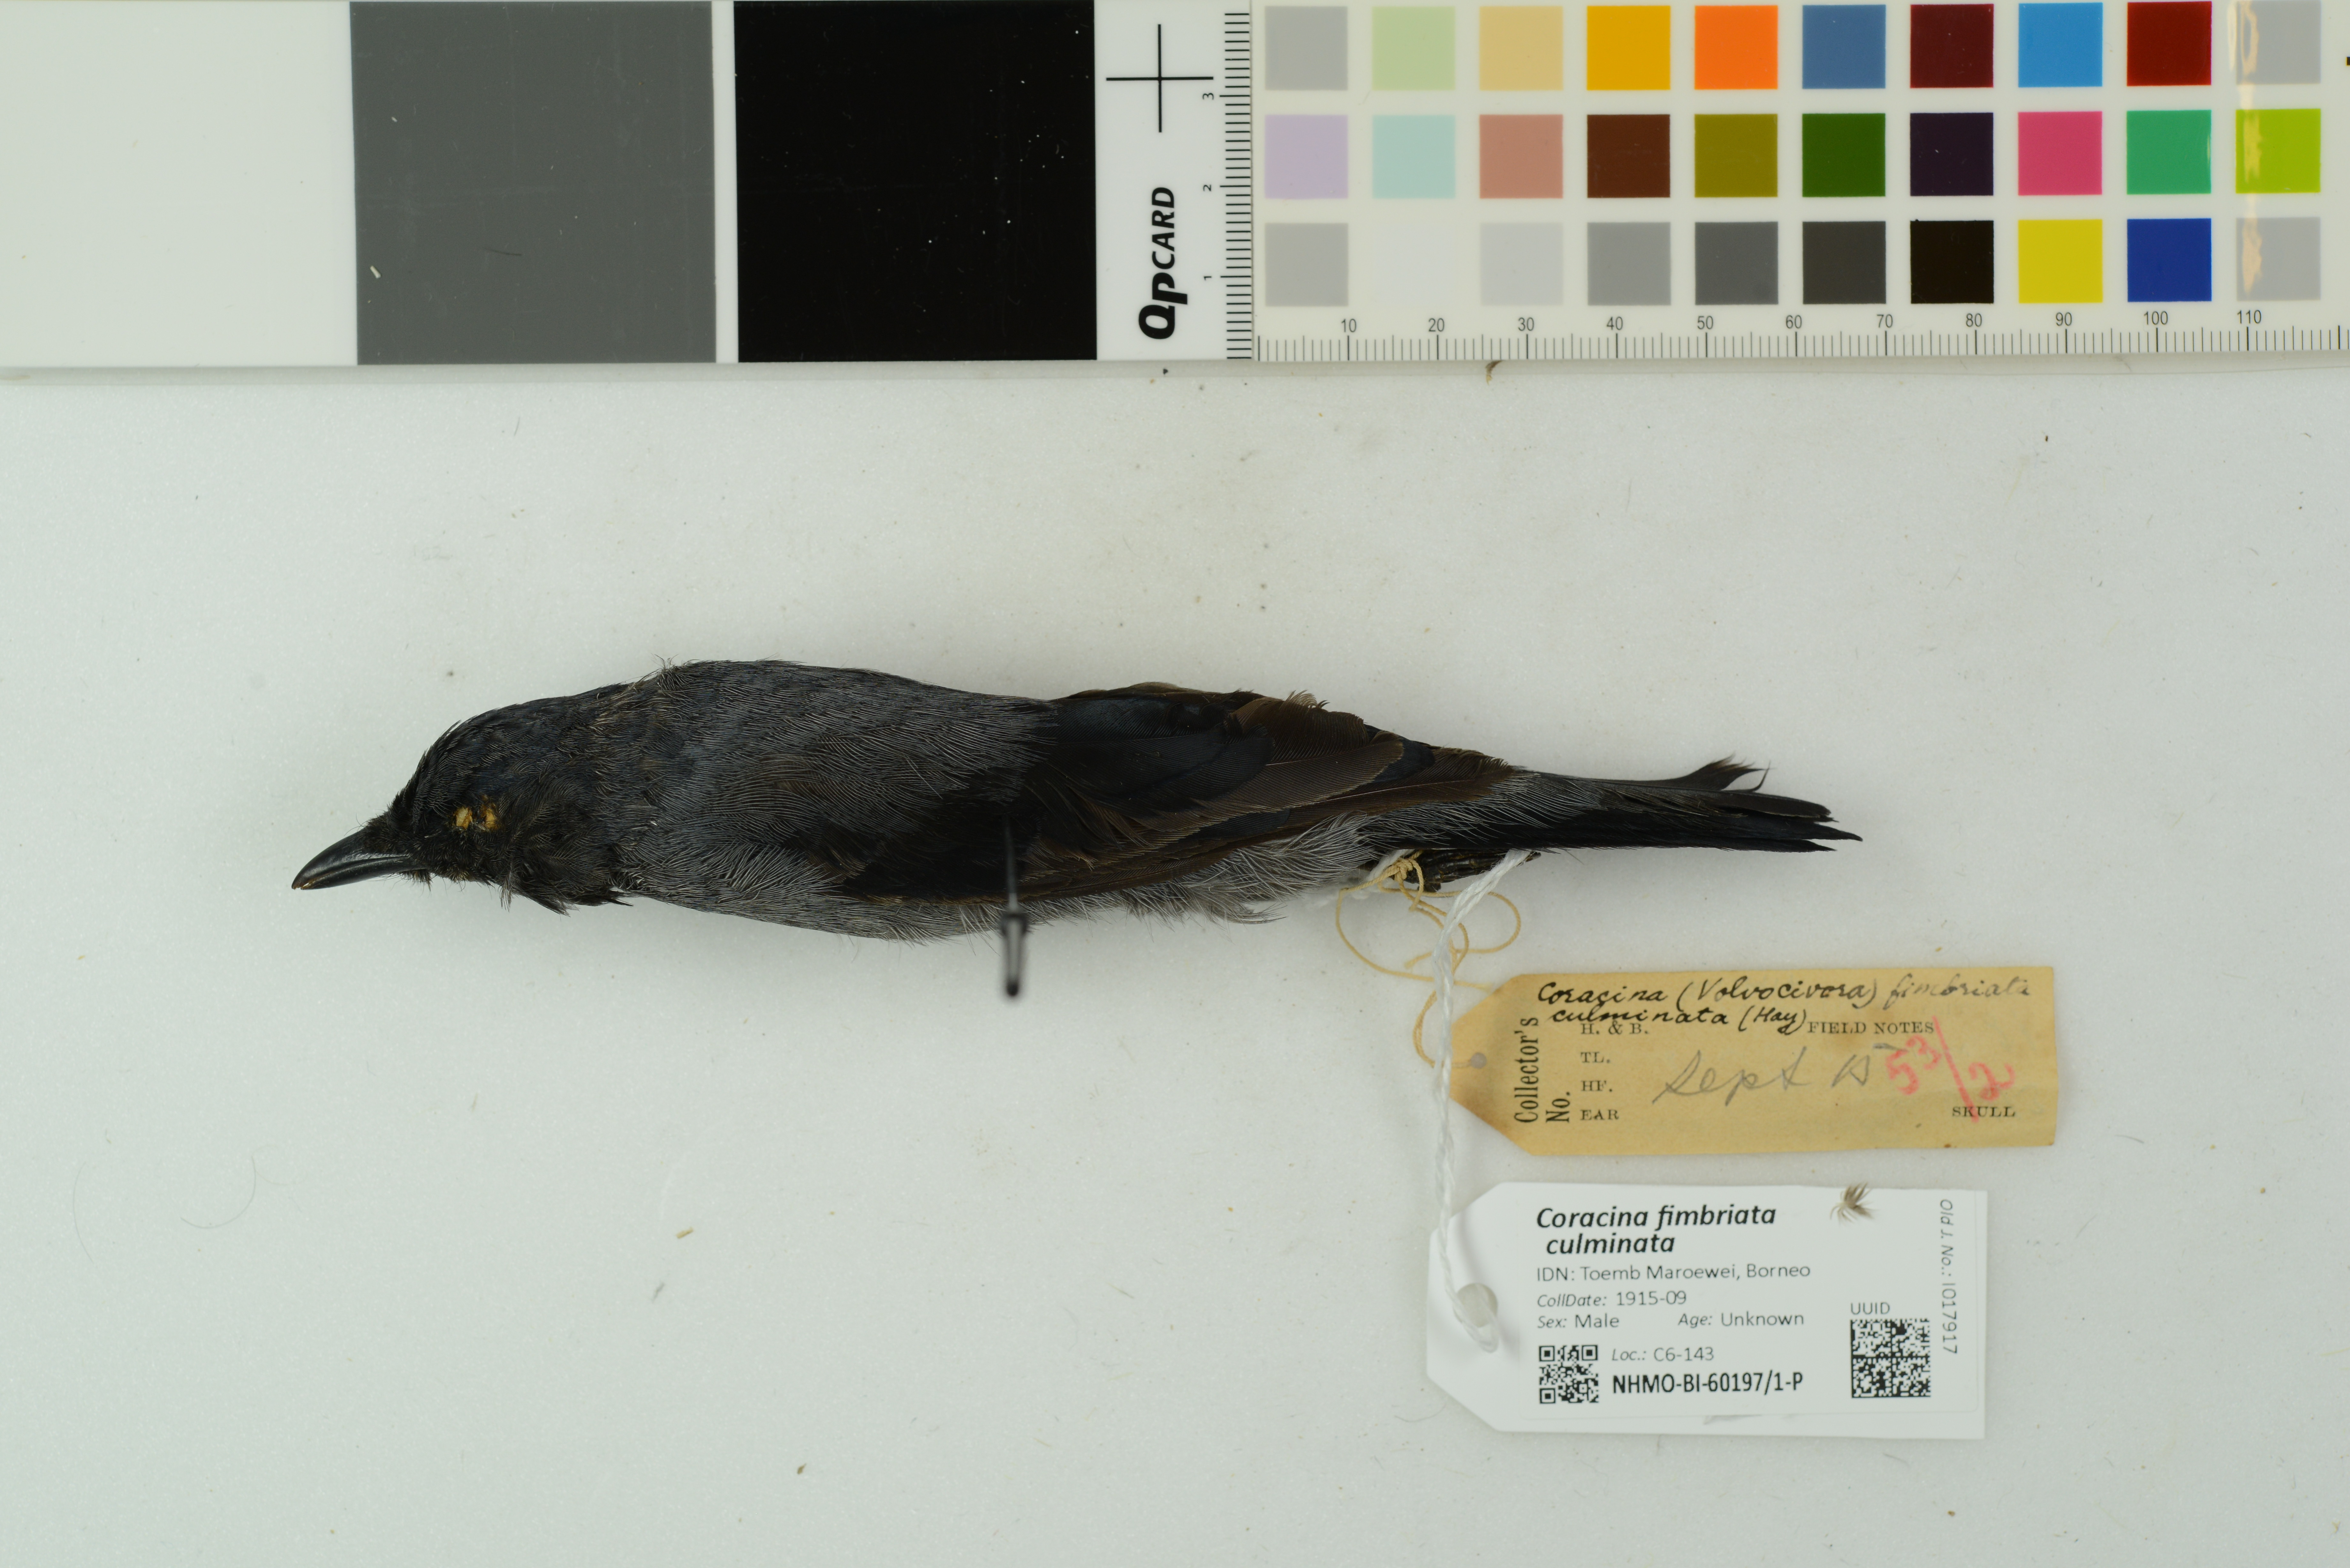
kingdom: Animalia
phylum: Chordata
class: Aves
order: Passeriformes
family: Campephagidae
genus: Coracina
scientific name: Coracina fimbriata
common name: Lesser cuckooshrike
